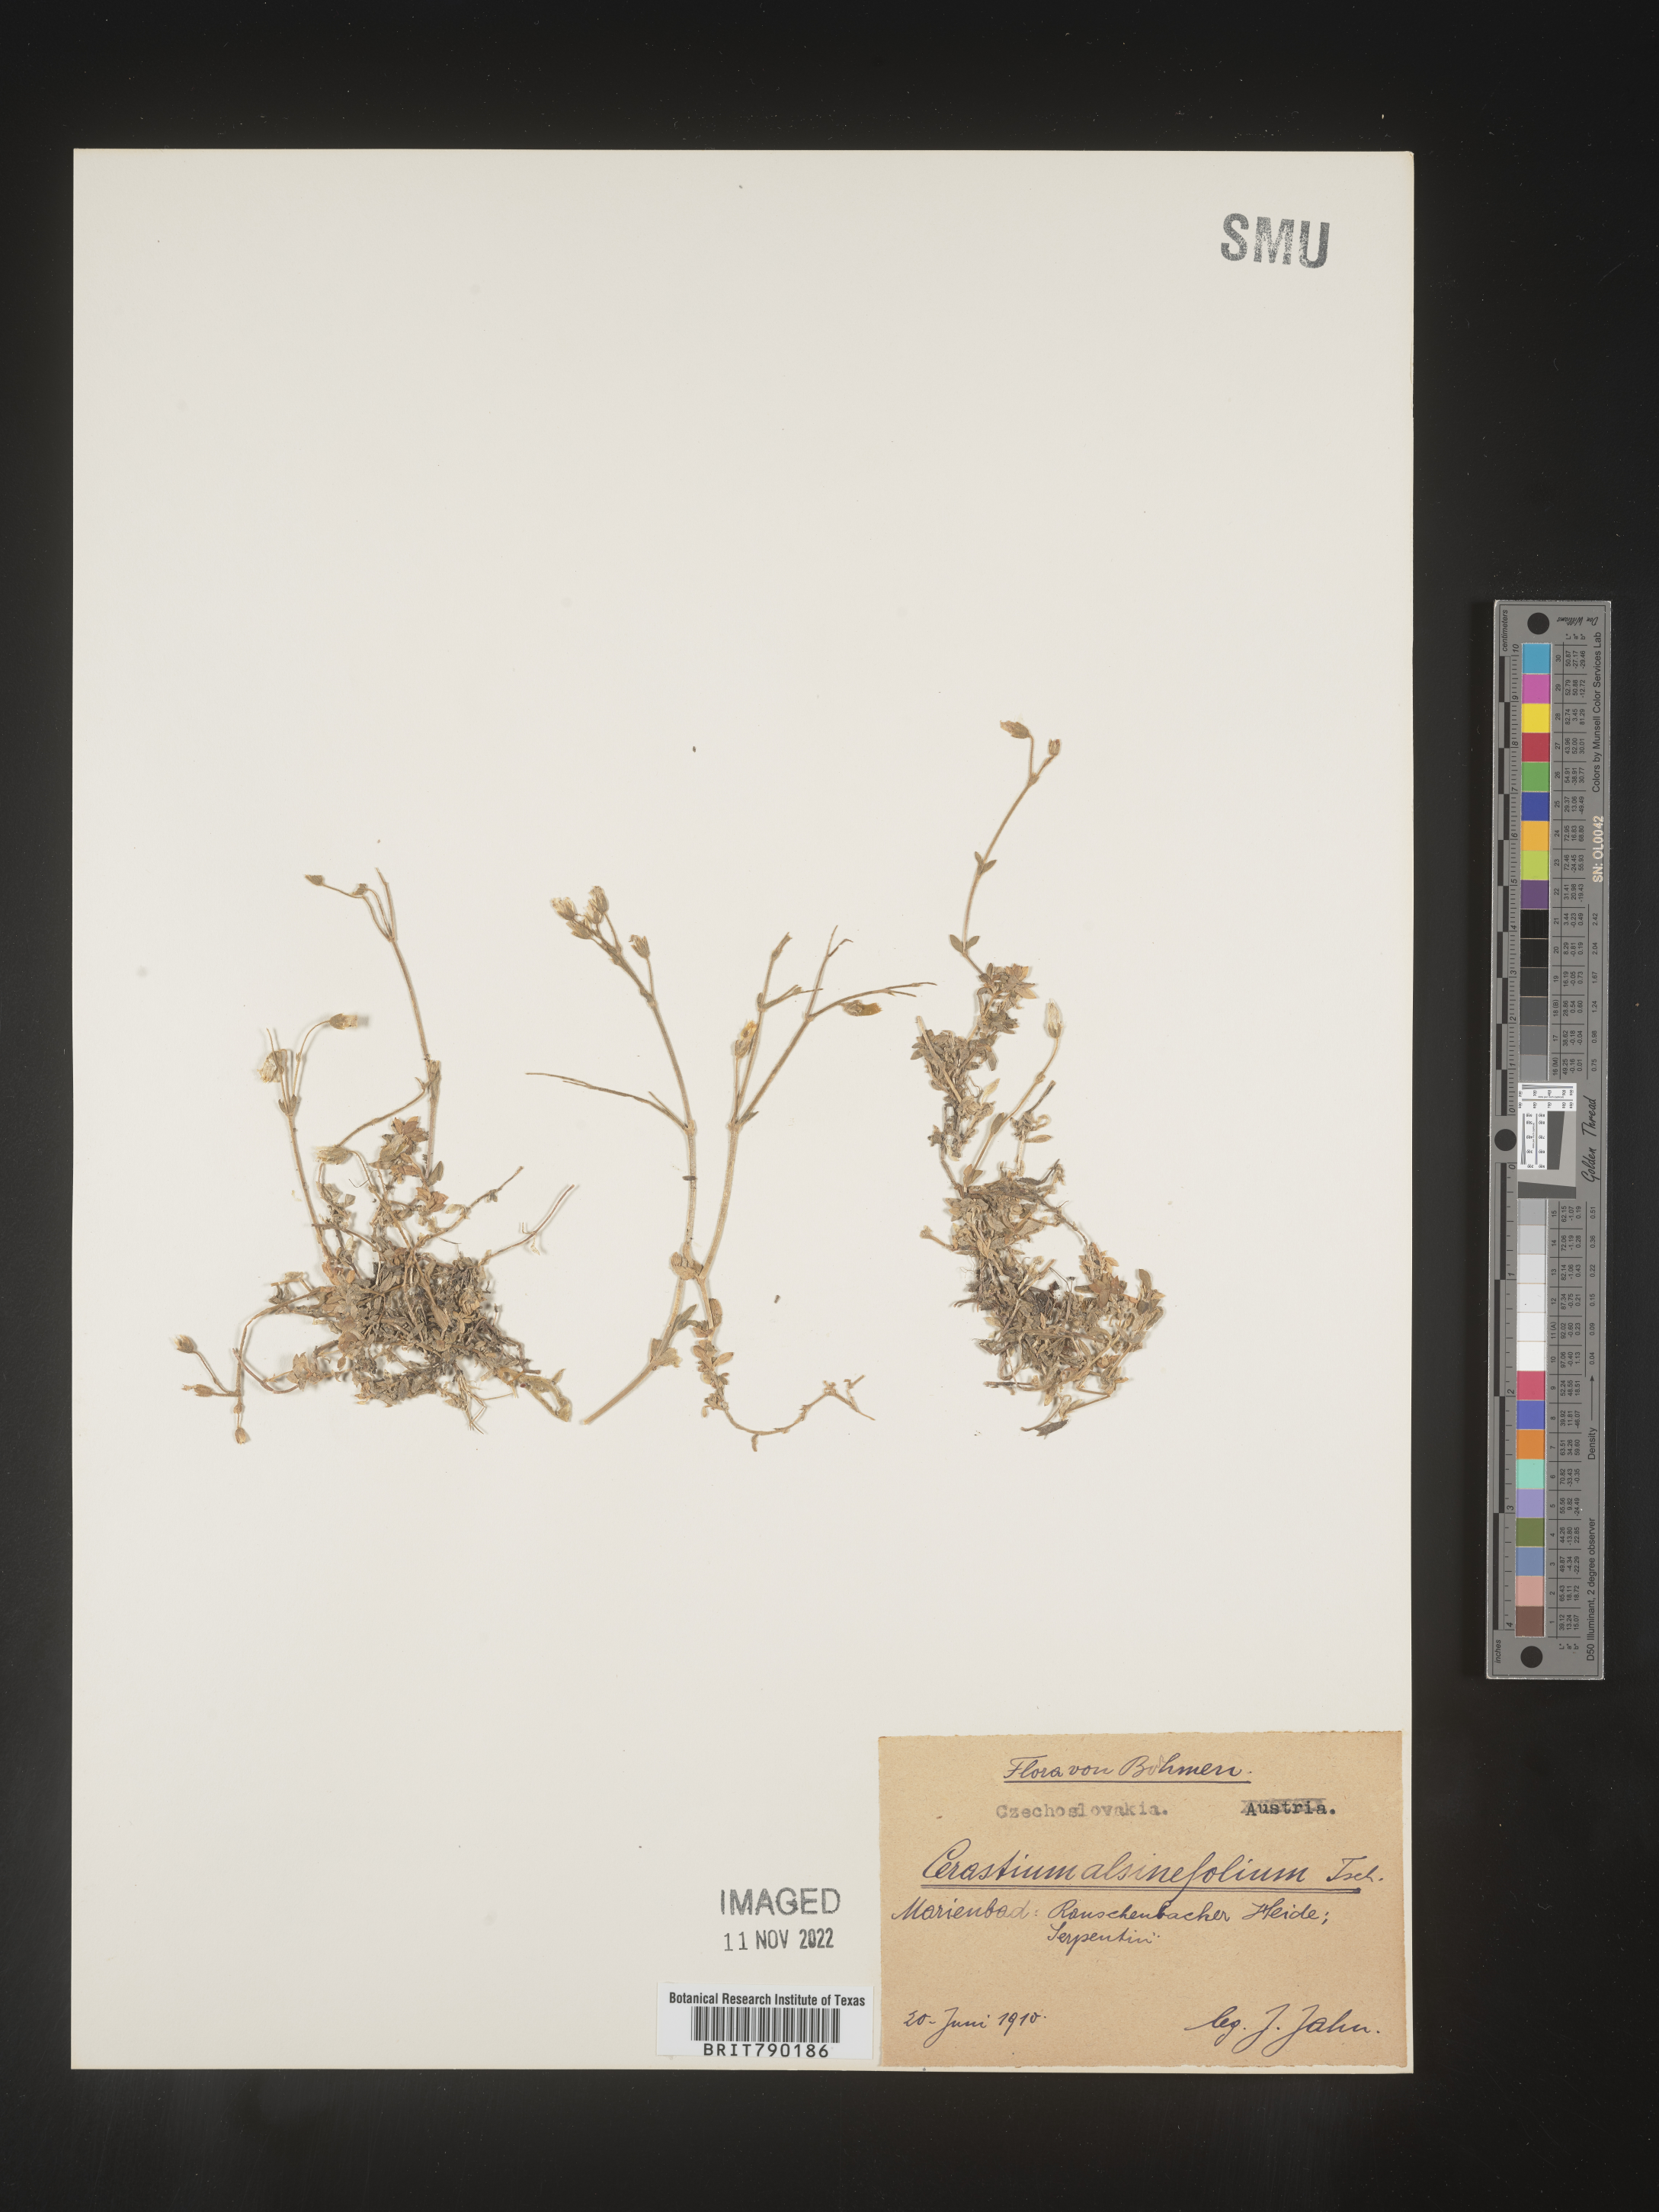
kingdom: Plantae
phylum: Tracheophyta
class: Magnoliopsida
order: Caryophyllales
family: Caryophyllaceae
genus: Cerastium
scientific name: Cerastium
